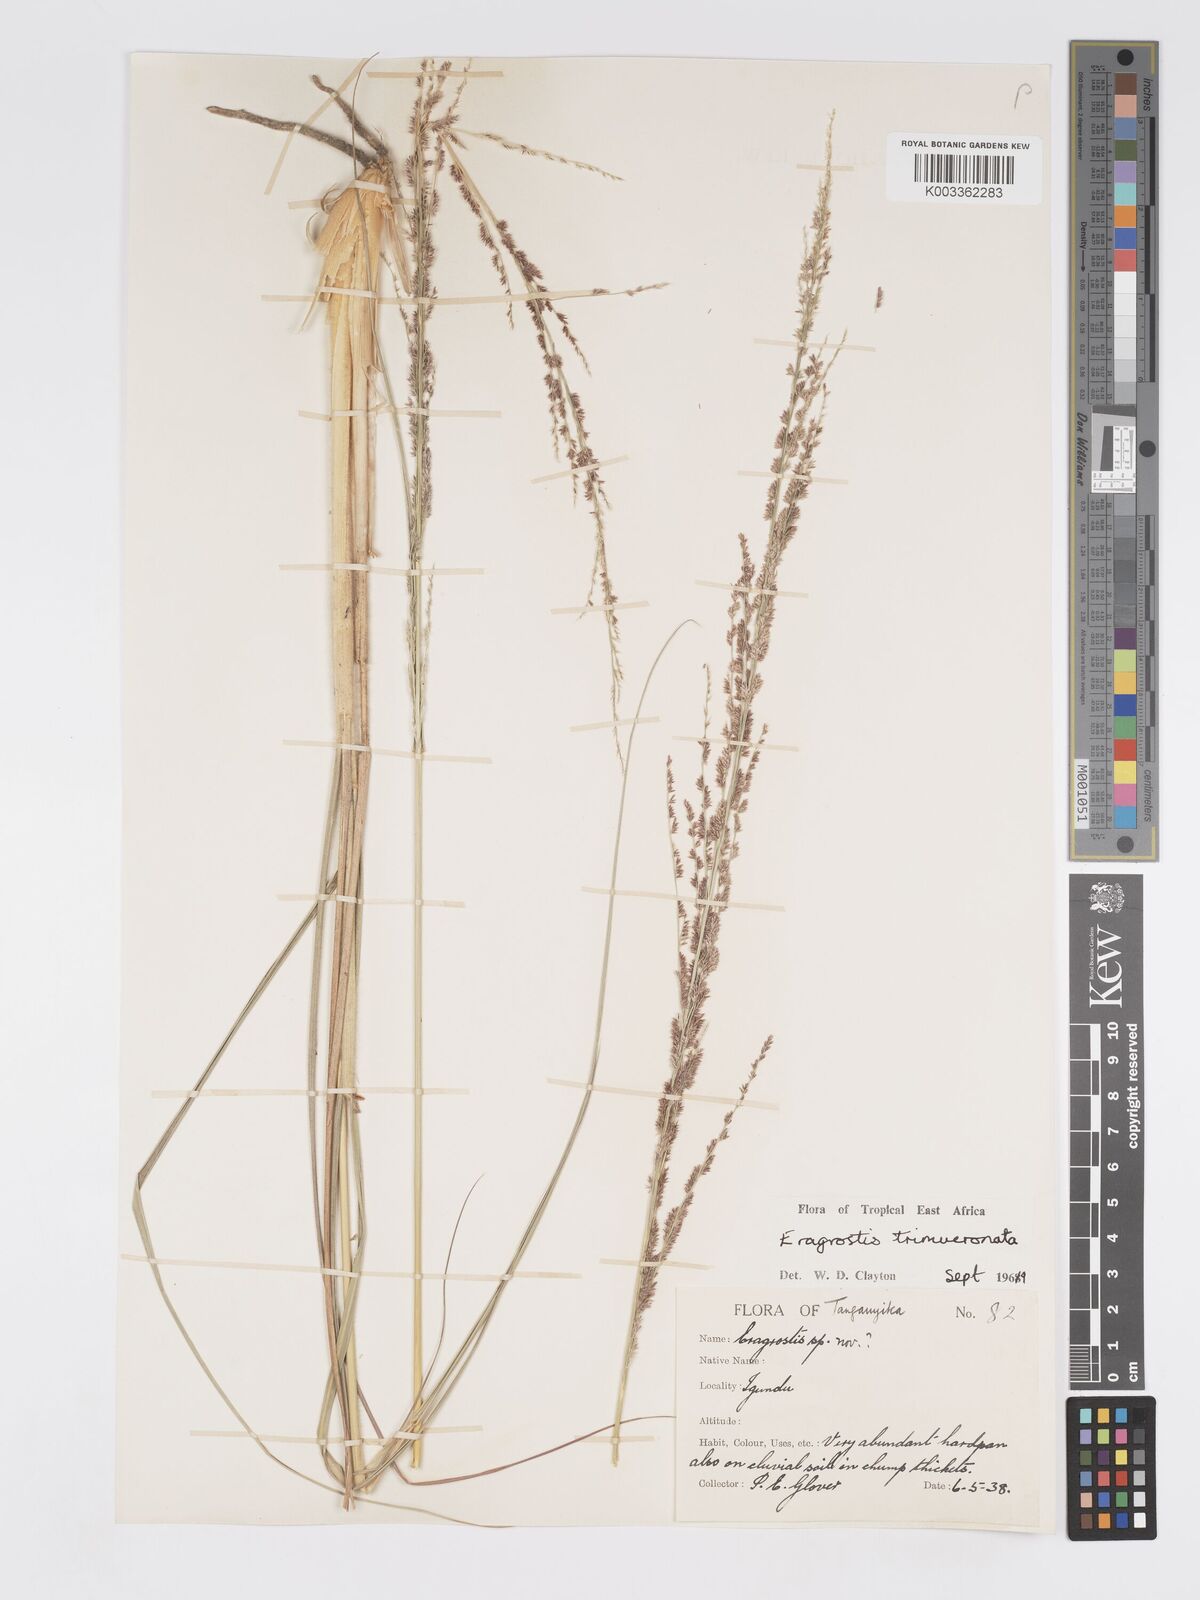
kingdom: Plantae
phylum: Tracheophyta
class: Liliopsida
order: Poales
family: Poaceae
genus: Eragrostis
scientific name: Eragrostis trimucronata
